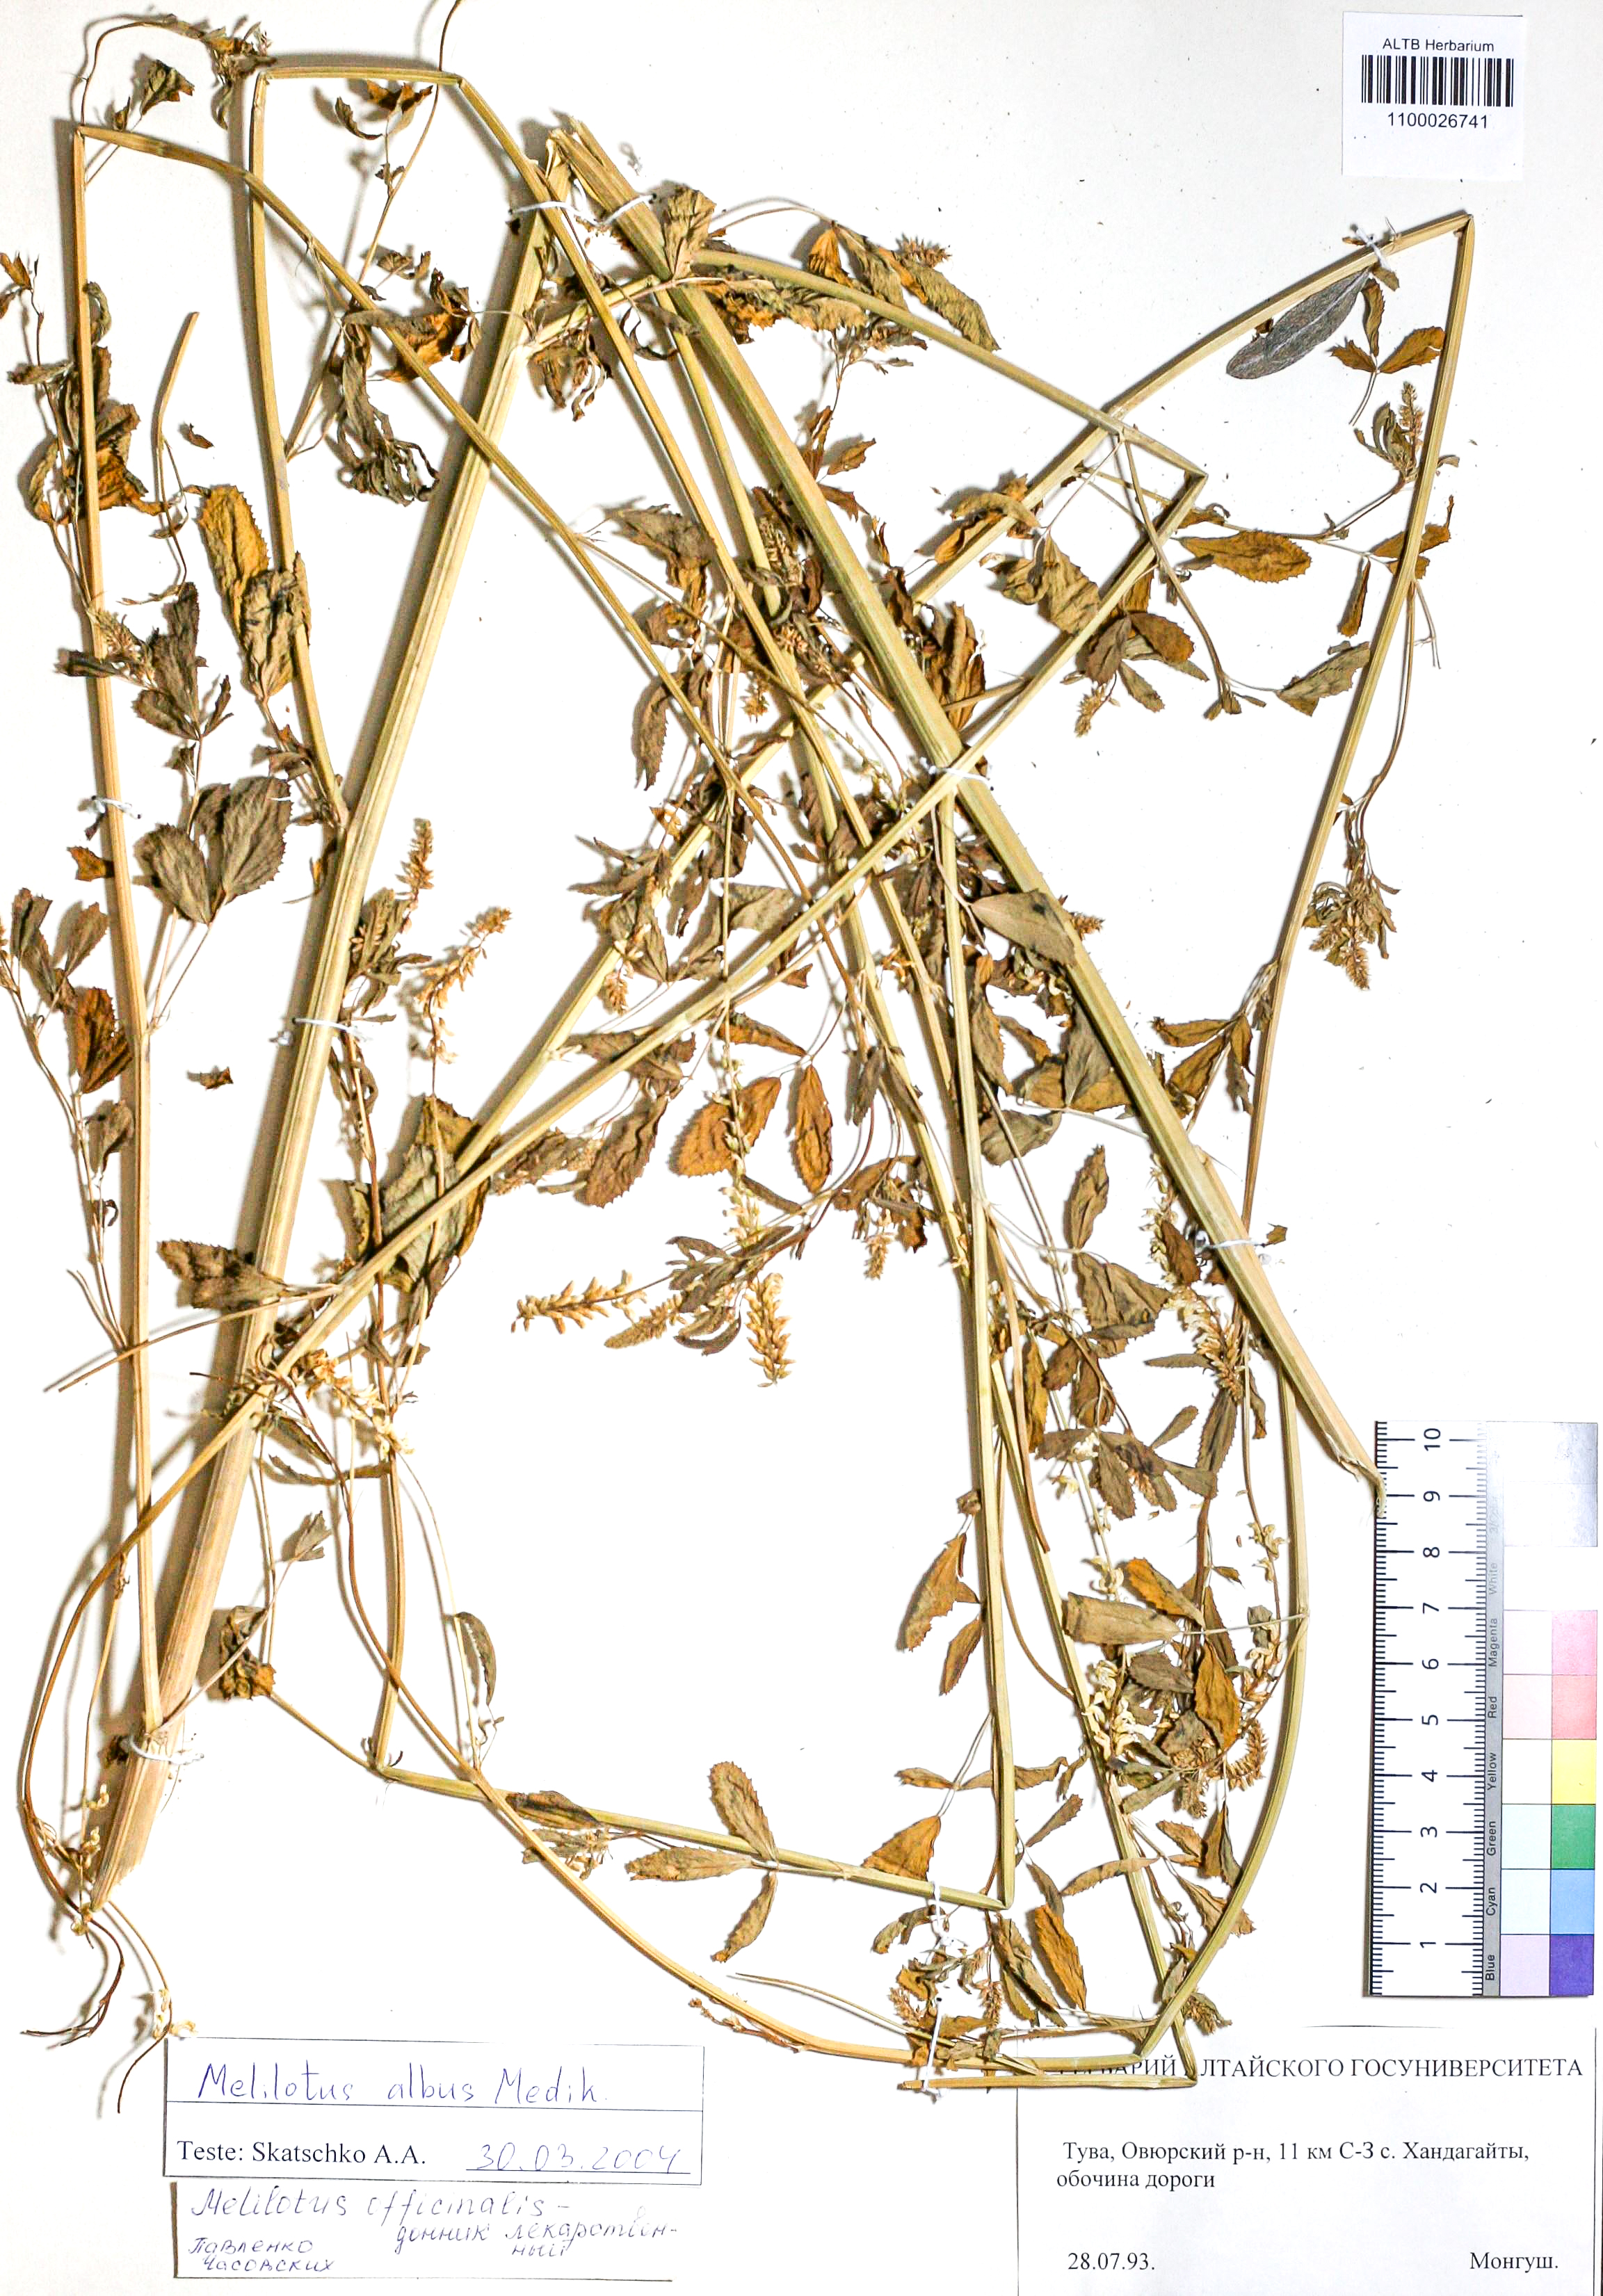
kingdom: Plantae
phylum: Tracheophyta
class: Magnoliopsida
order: Fabales
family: Fabaceae
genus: Melilotus
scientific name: Melilotus albus
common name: White melilot
